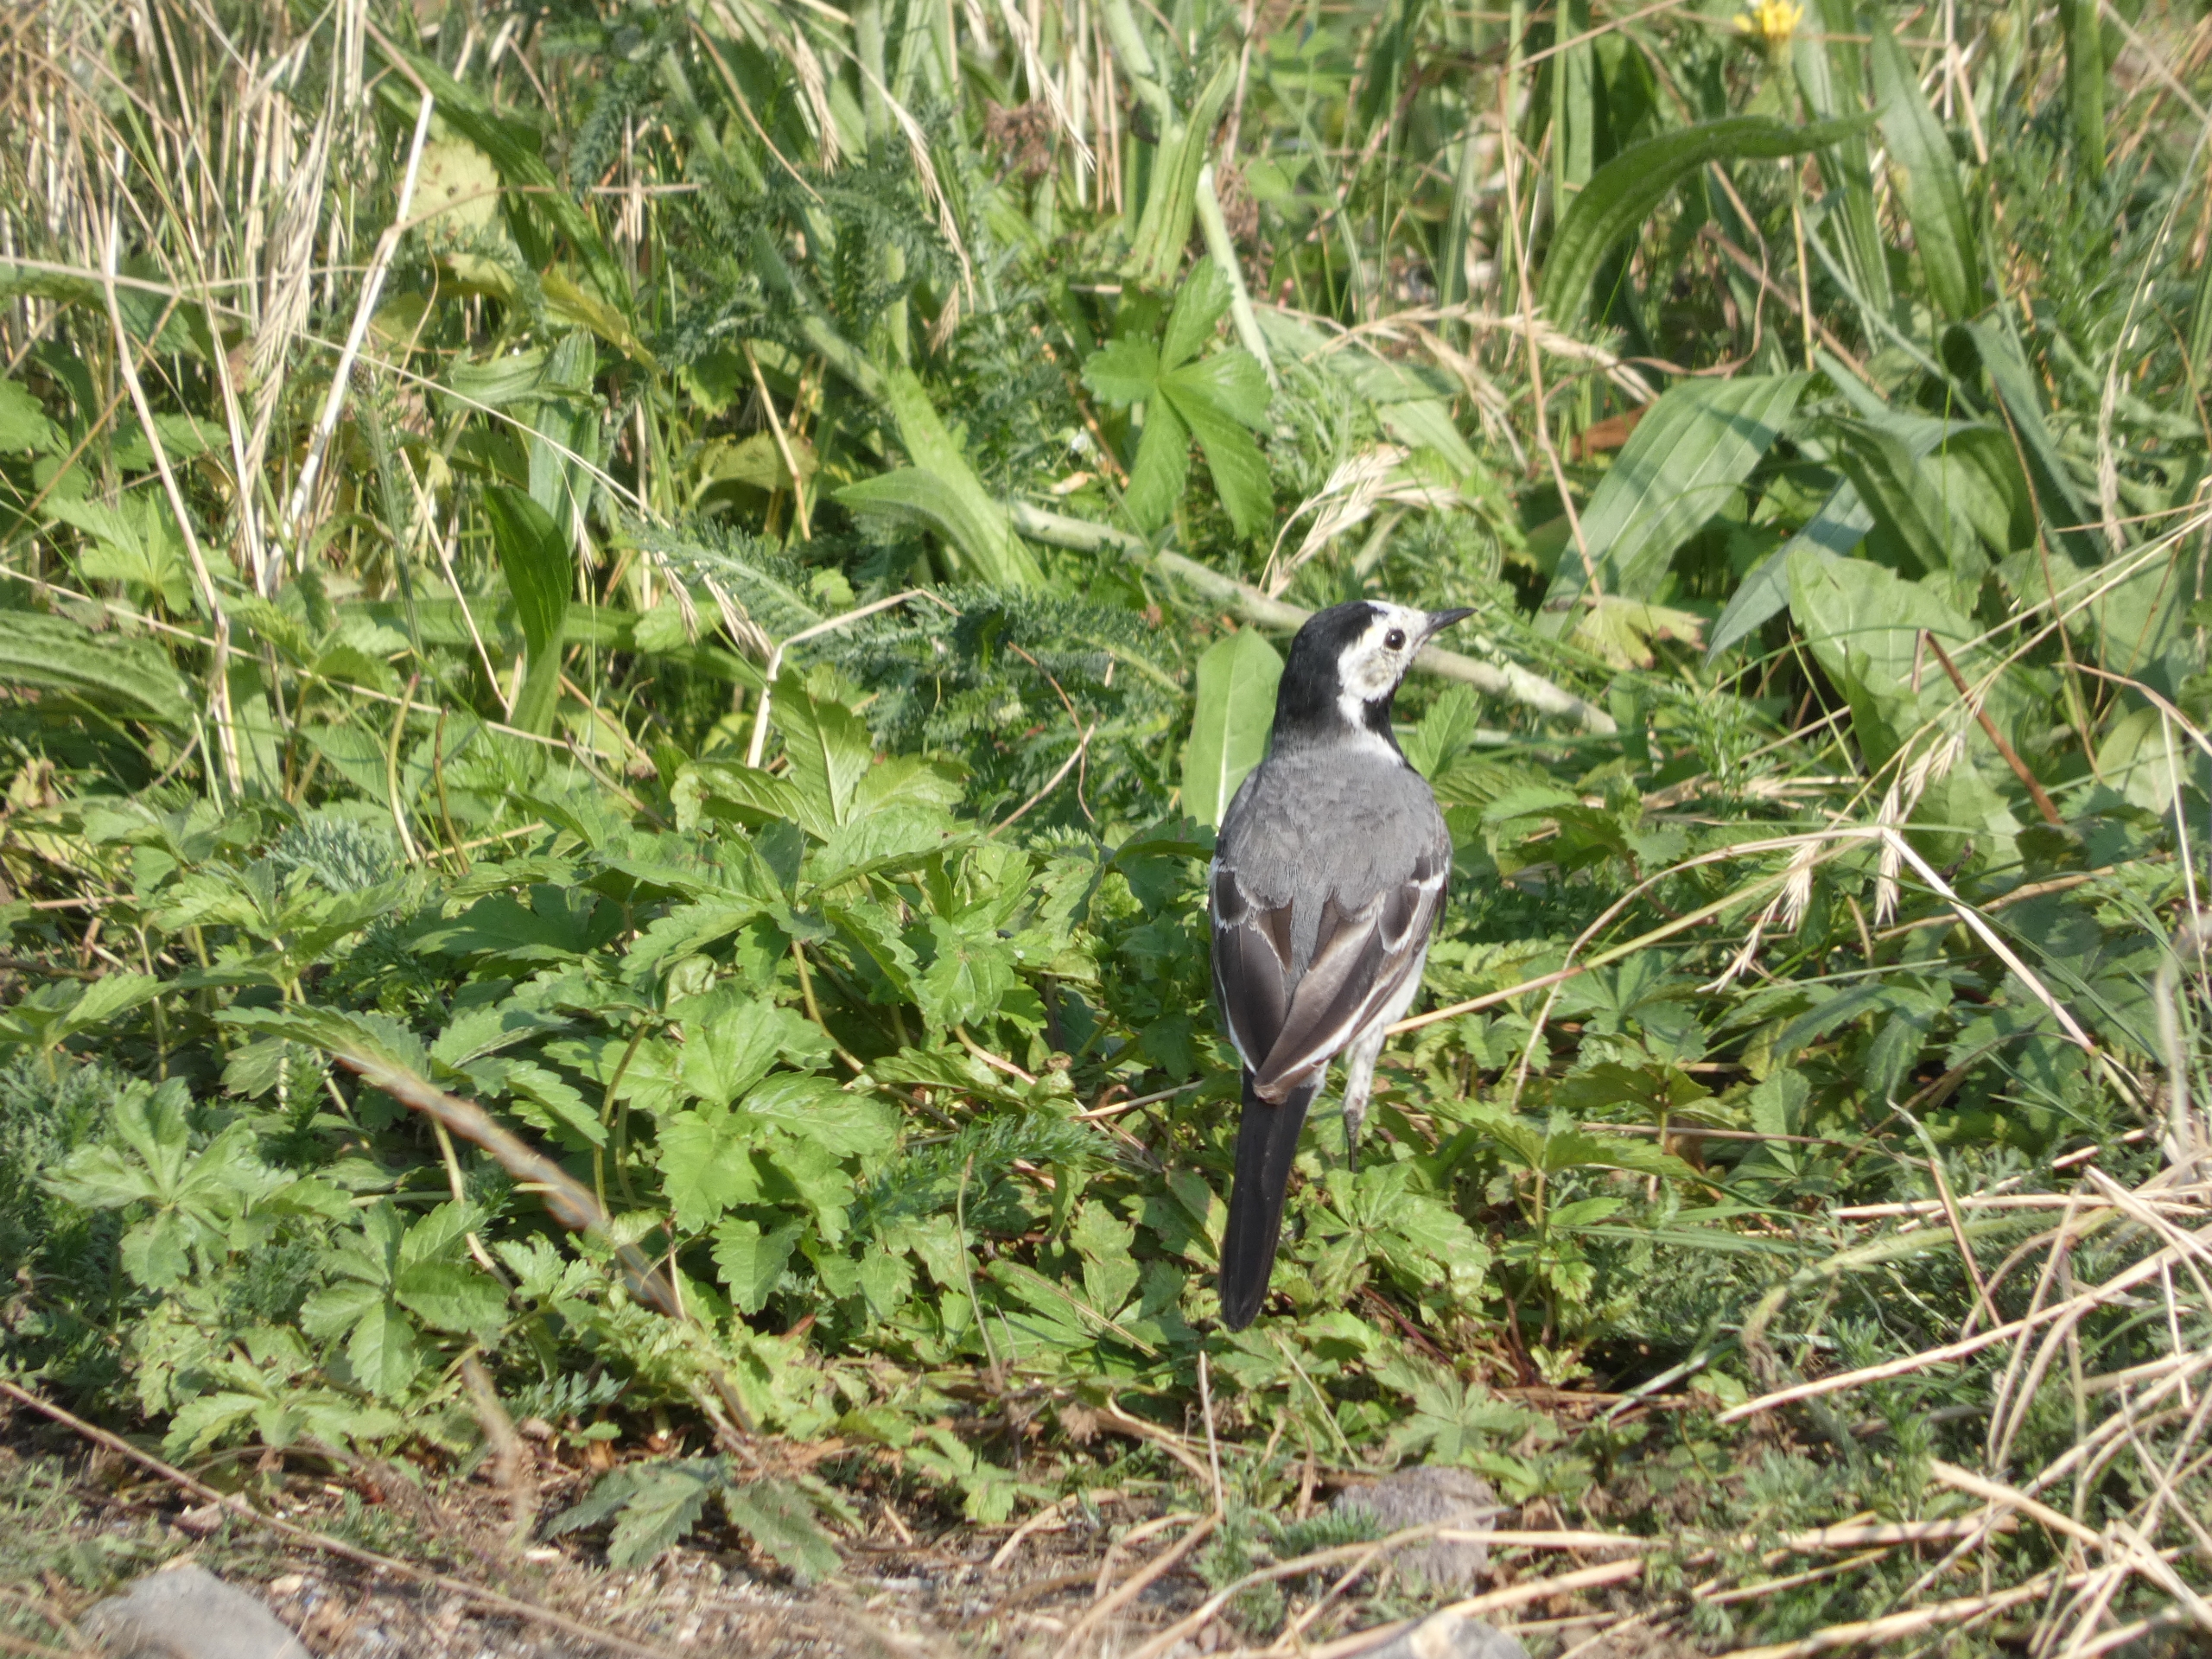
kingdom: Animalia
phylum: Chordata
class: Aves
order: Passeriformes
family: Motacillidae
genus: Motacilla
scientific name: Motacilla alba
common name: Hvid vipstjert
